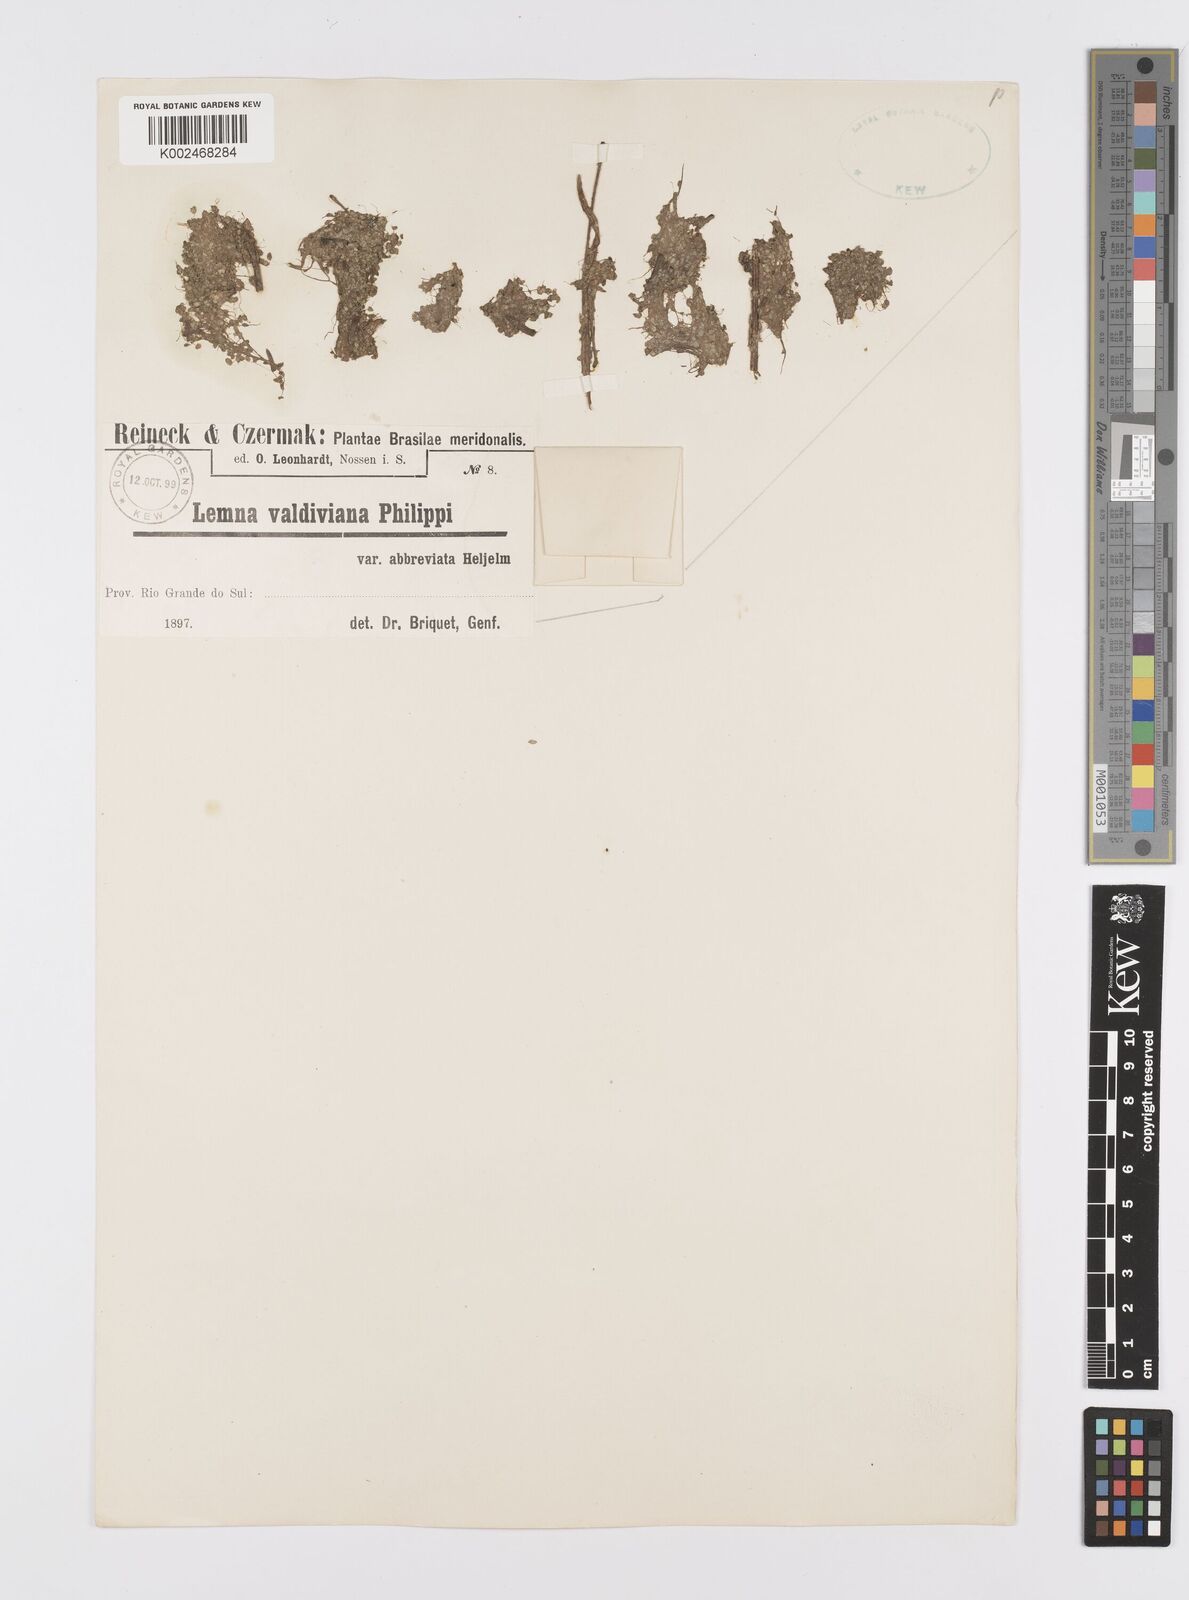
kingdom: Plantae
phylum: Tracheophyta
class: Liliopsida
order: Alismatales
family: Araceae
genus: Lemna
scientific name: Lemna valdiviana
